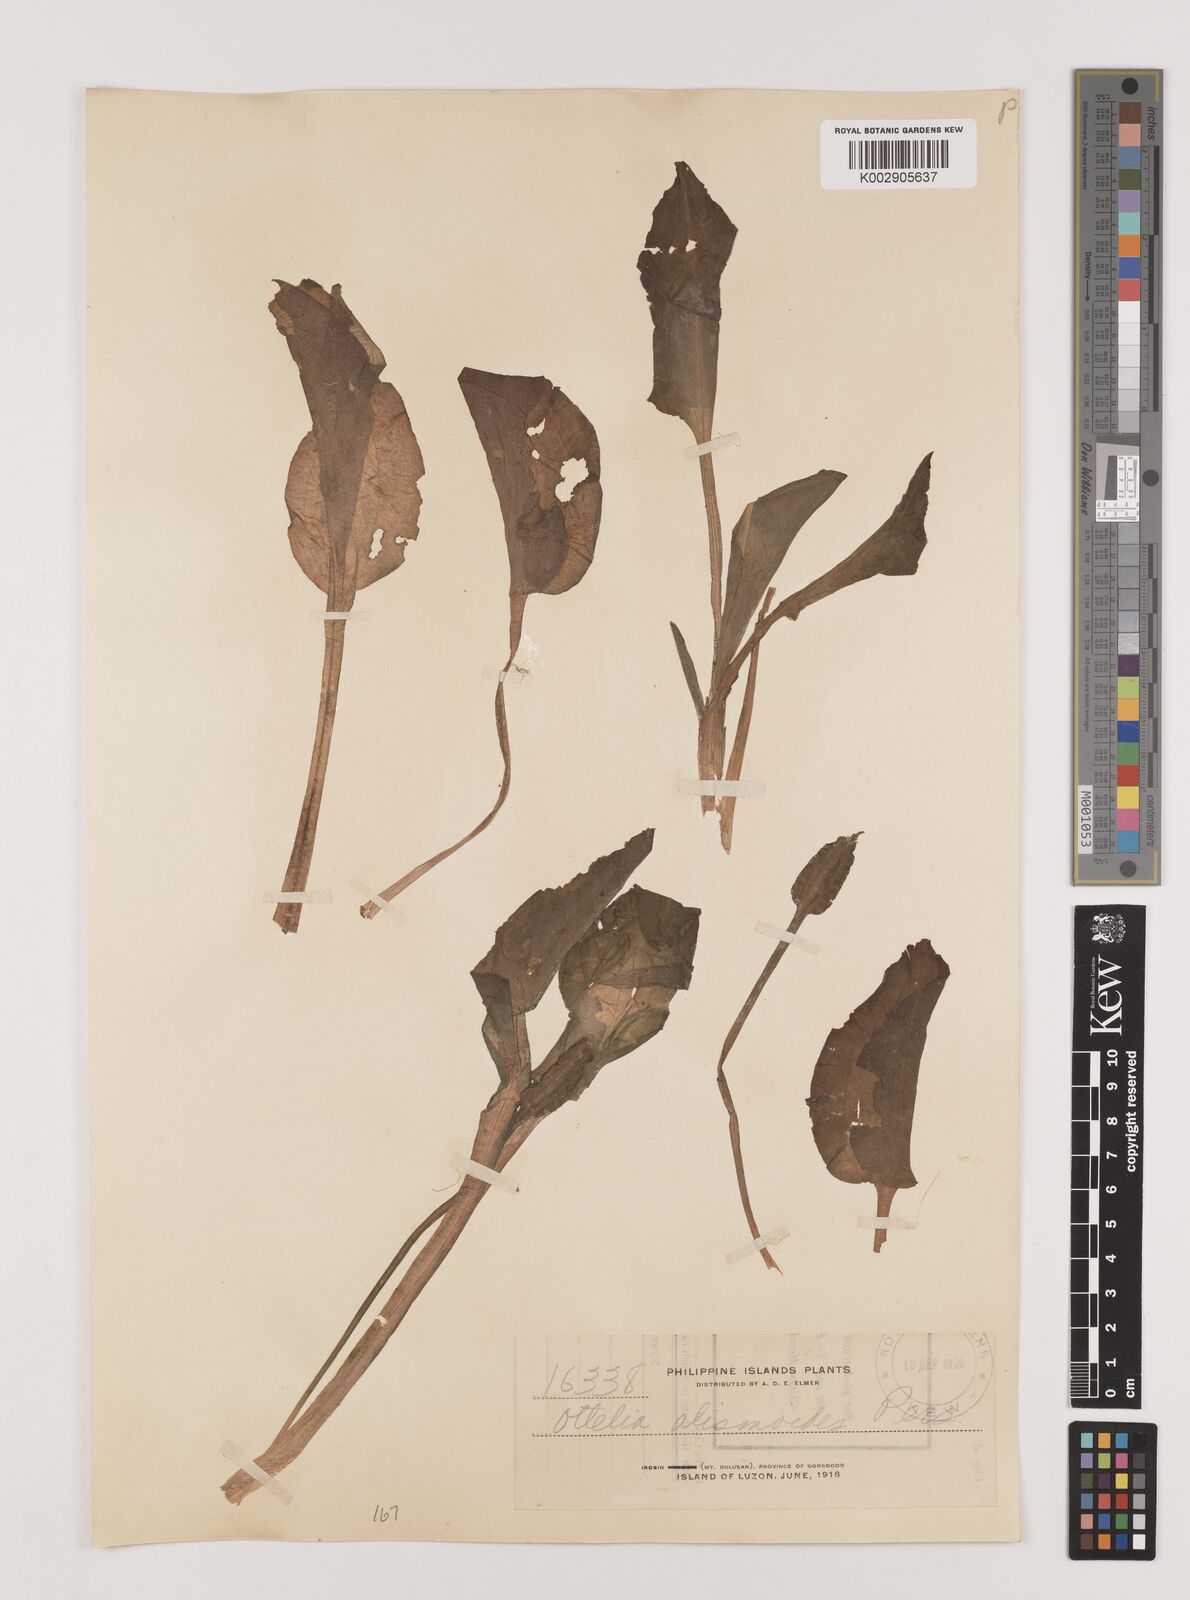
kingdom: Plantae
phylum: Tracheophyta
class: Liliopsida
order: Alismatales
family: Hydrocharitaceae
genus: Ottelia
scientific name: Ottelia alismoides
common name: Duck-lettuce
